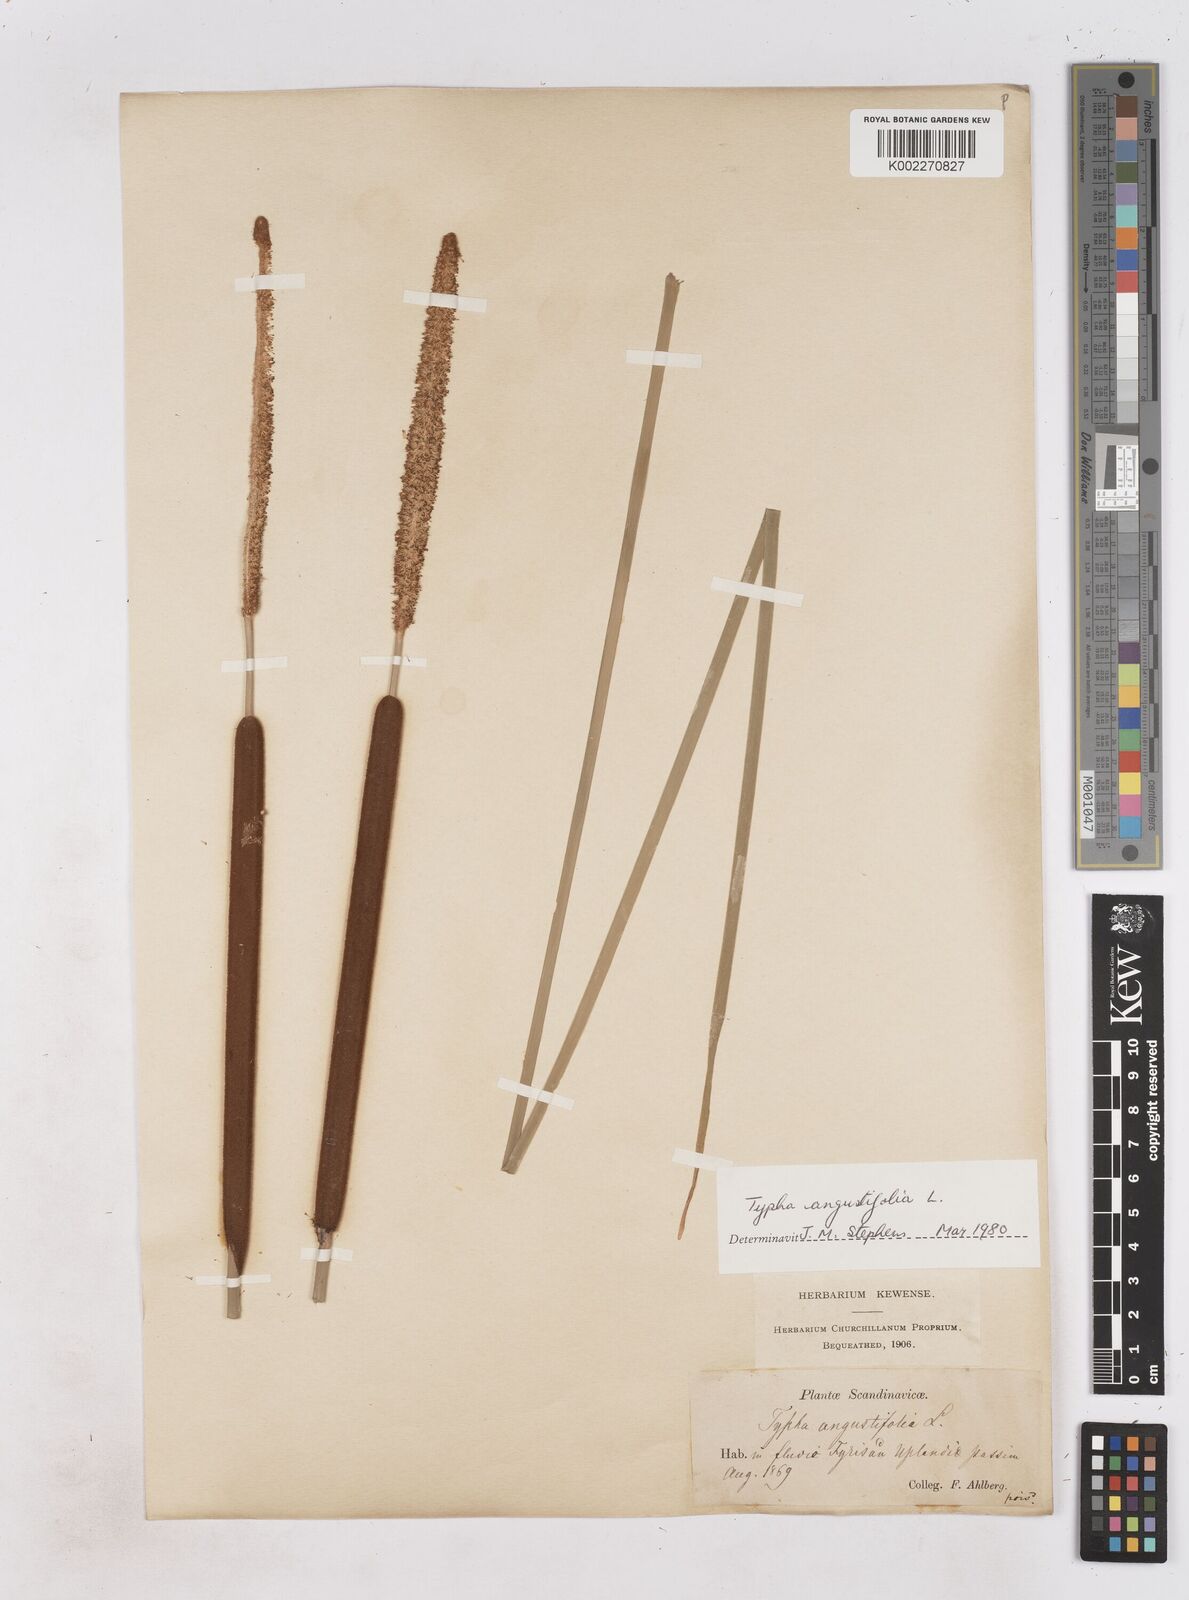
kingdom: Plantae
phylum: Tracheophyta
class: Liliopsida
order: Poales
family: Typhaceae
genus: Typha
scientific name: Typha angustifolia
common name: Lesser bulrush
